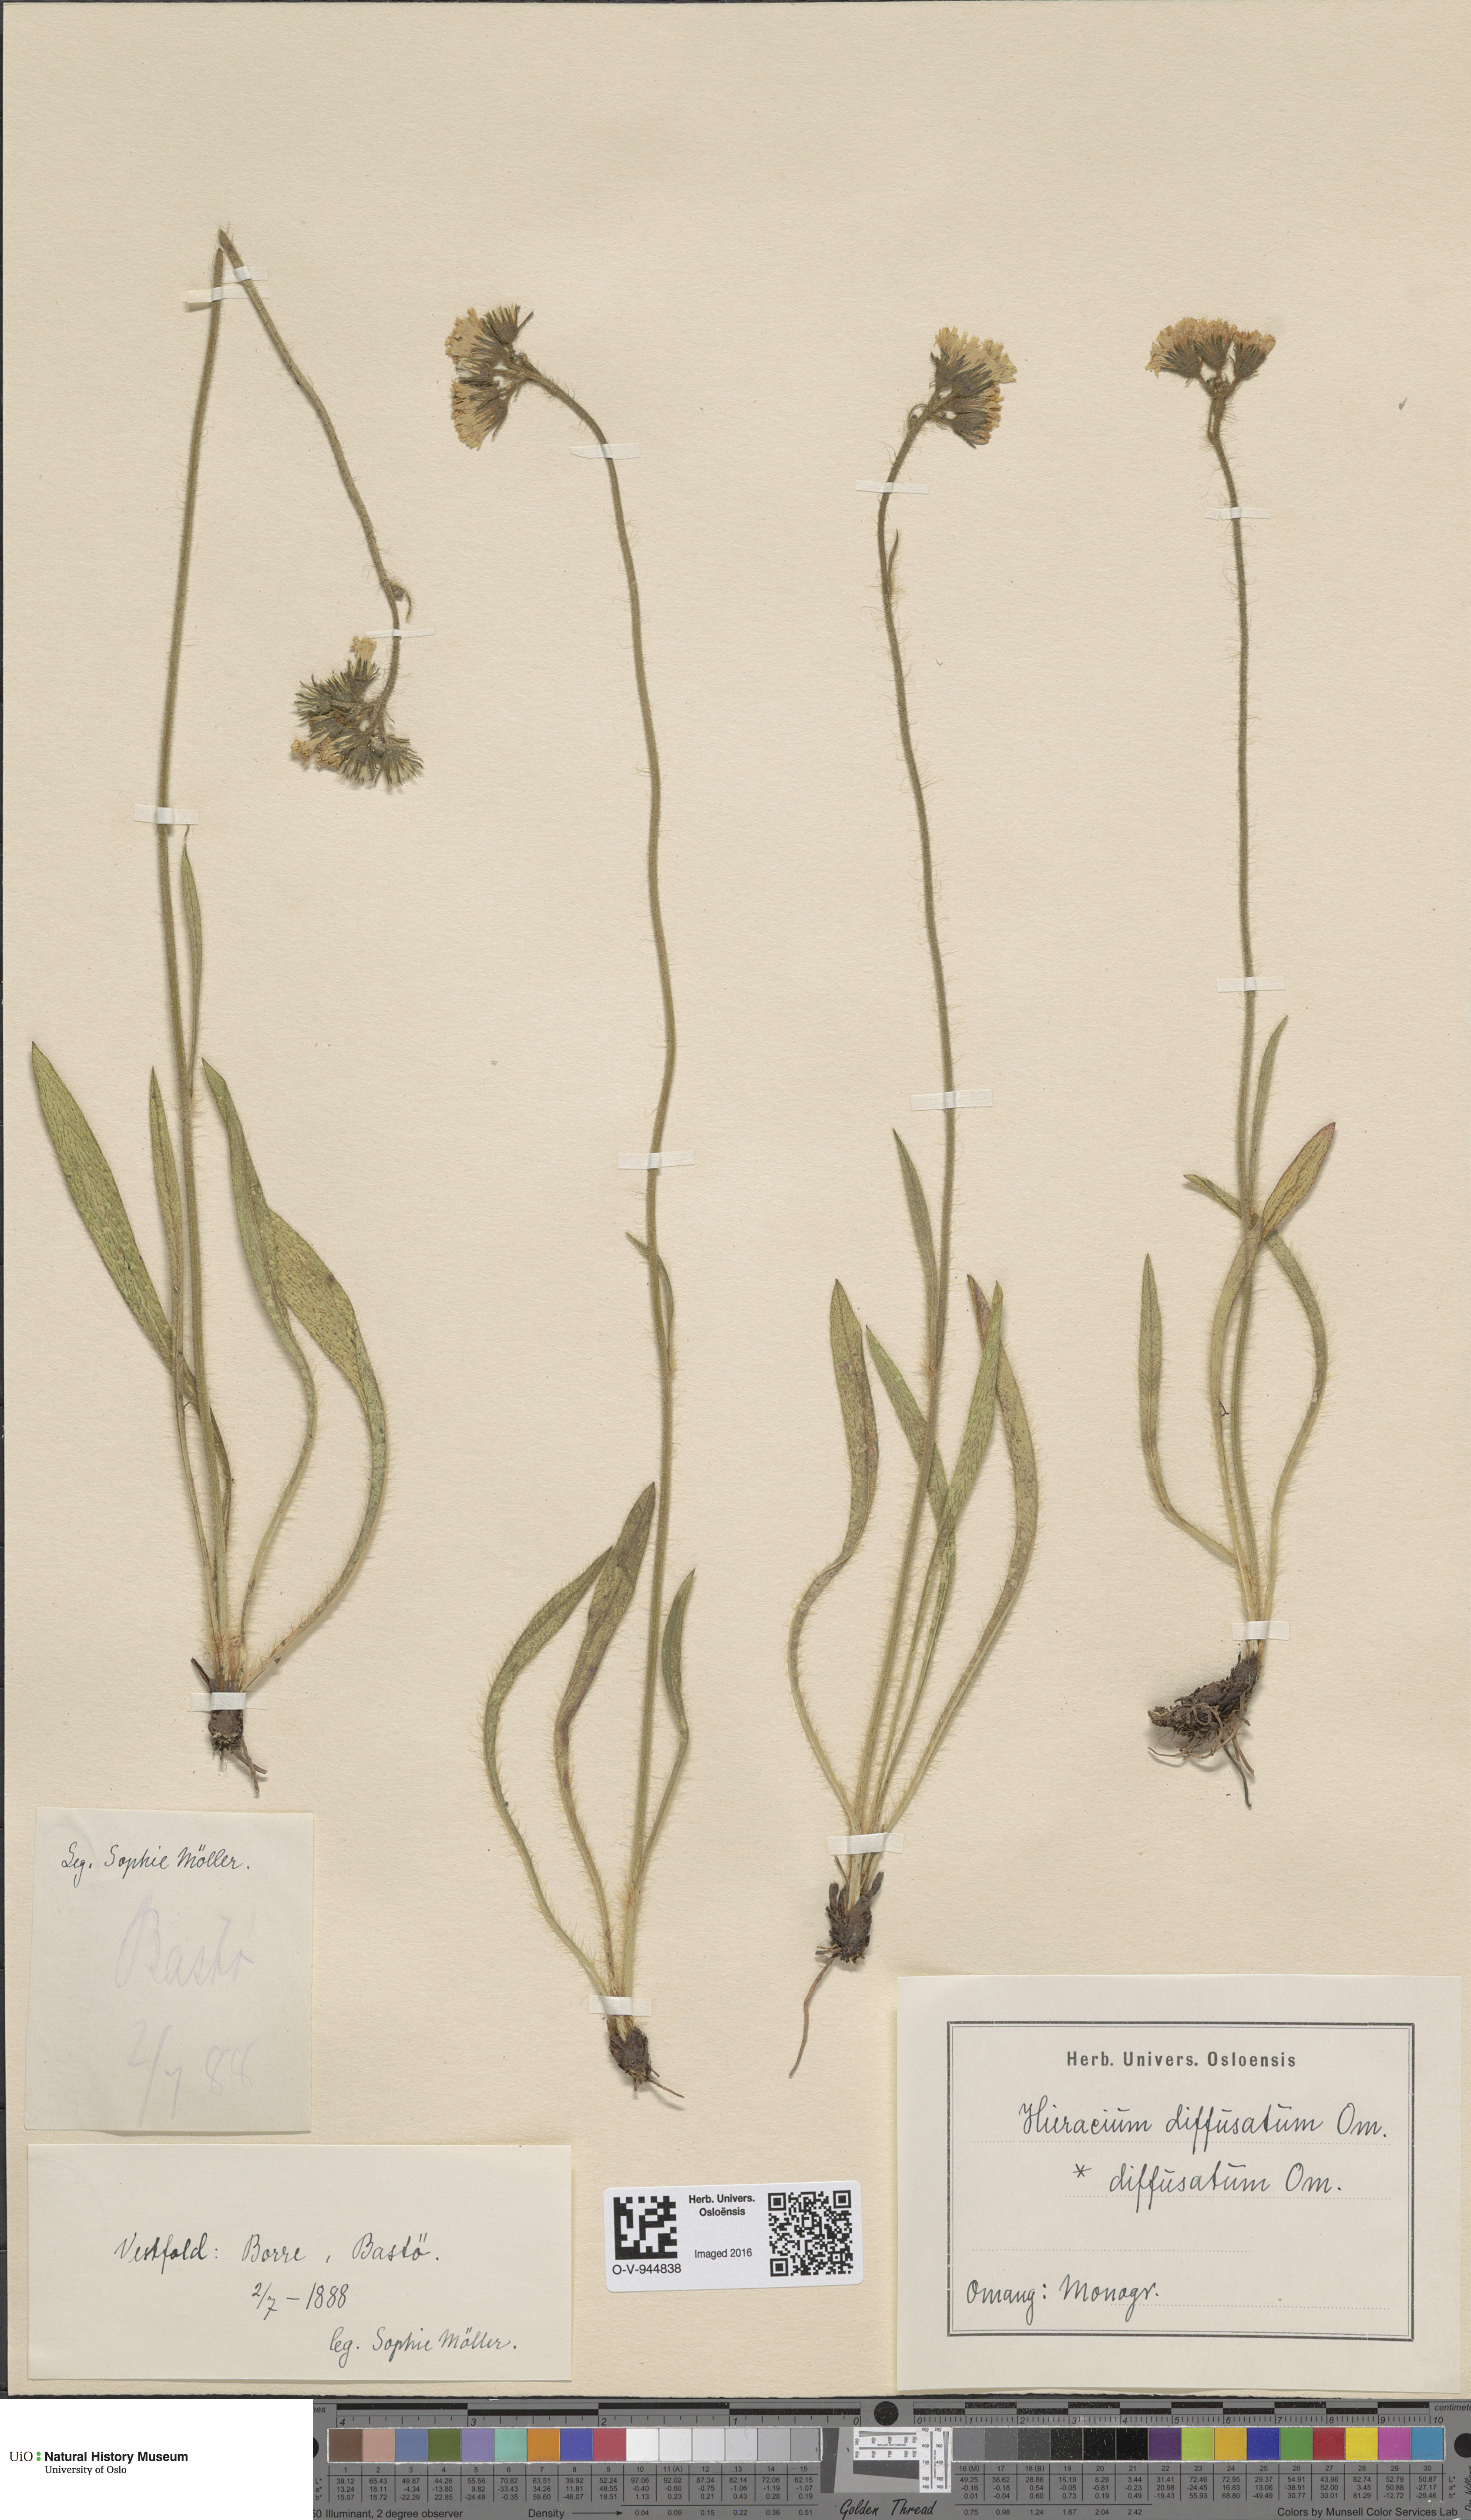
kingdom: Plantae
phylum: Tracheophyta
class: Magnoliopsida
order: Asterales
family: Asteraceae
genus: Pilosella
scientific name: Pilosella dubia
